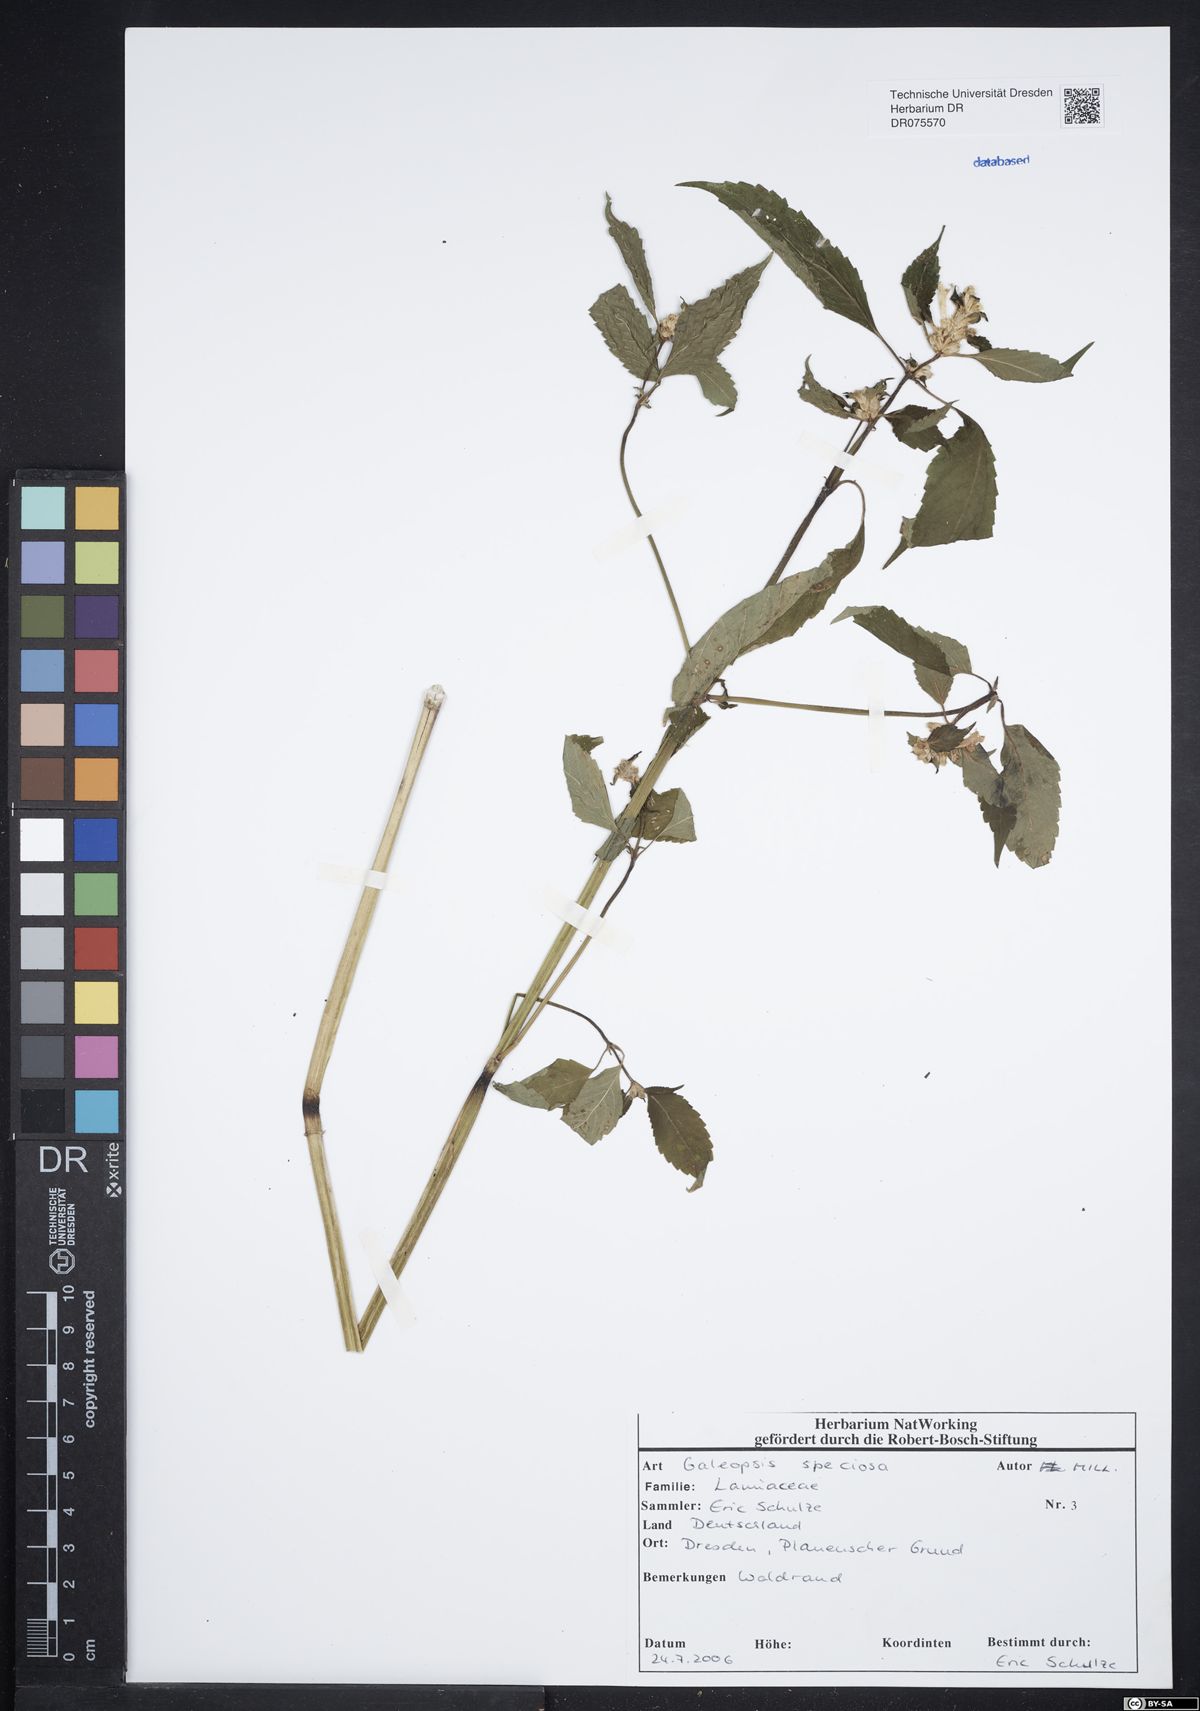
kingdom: Plantae
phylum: Tracheophyta
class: Magnoliopsida
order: Lamiales
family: Lamiaceae
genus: Galeopsis
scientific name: Galeopsis speciosa
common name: Large-flowered hemp-nettle
